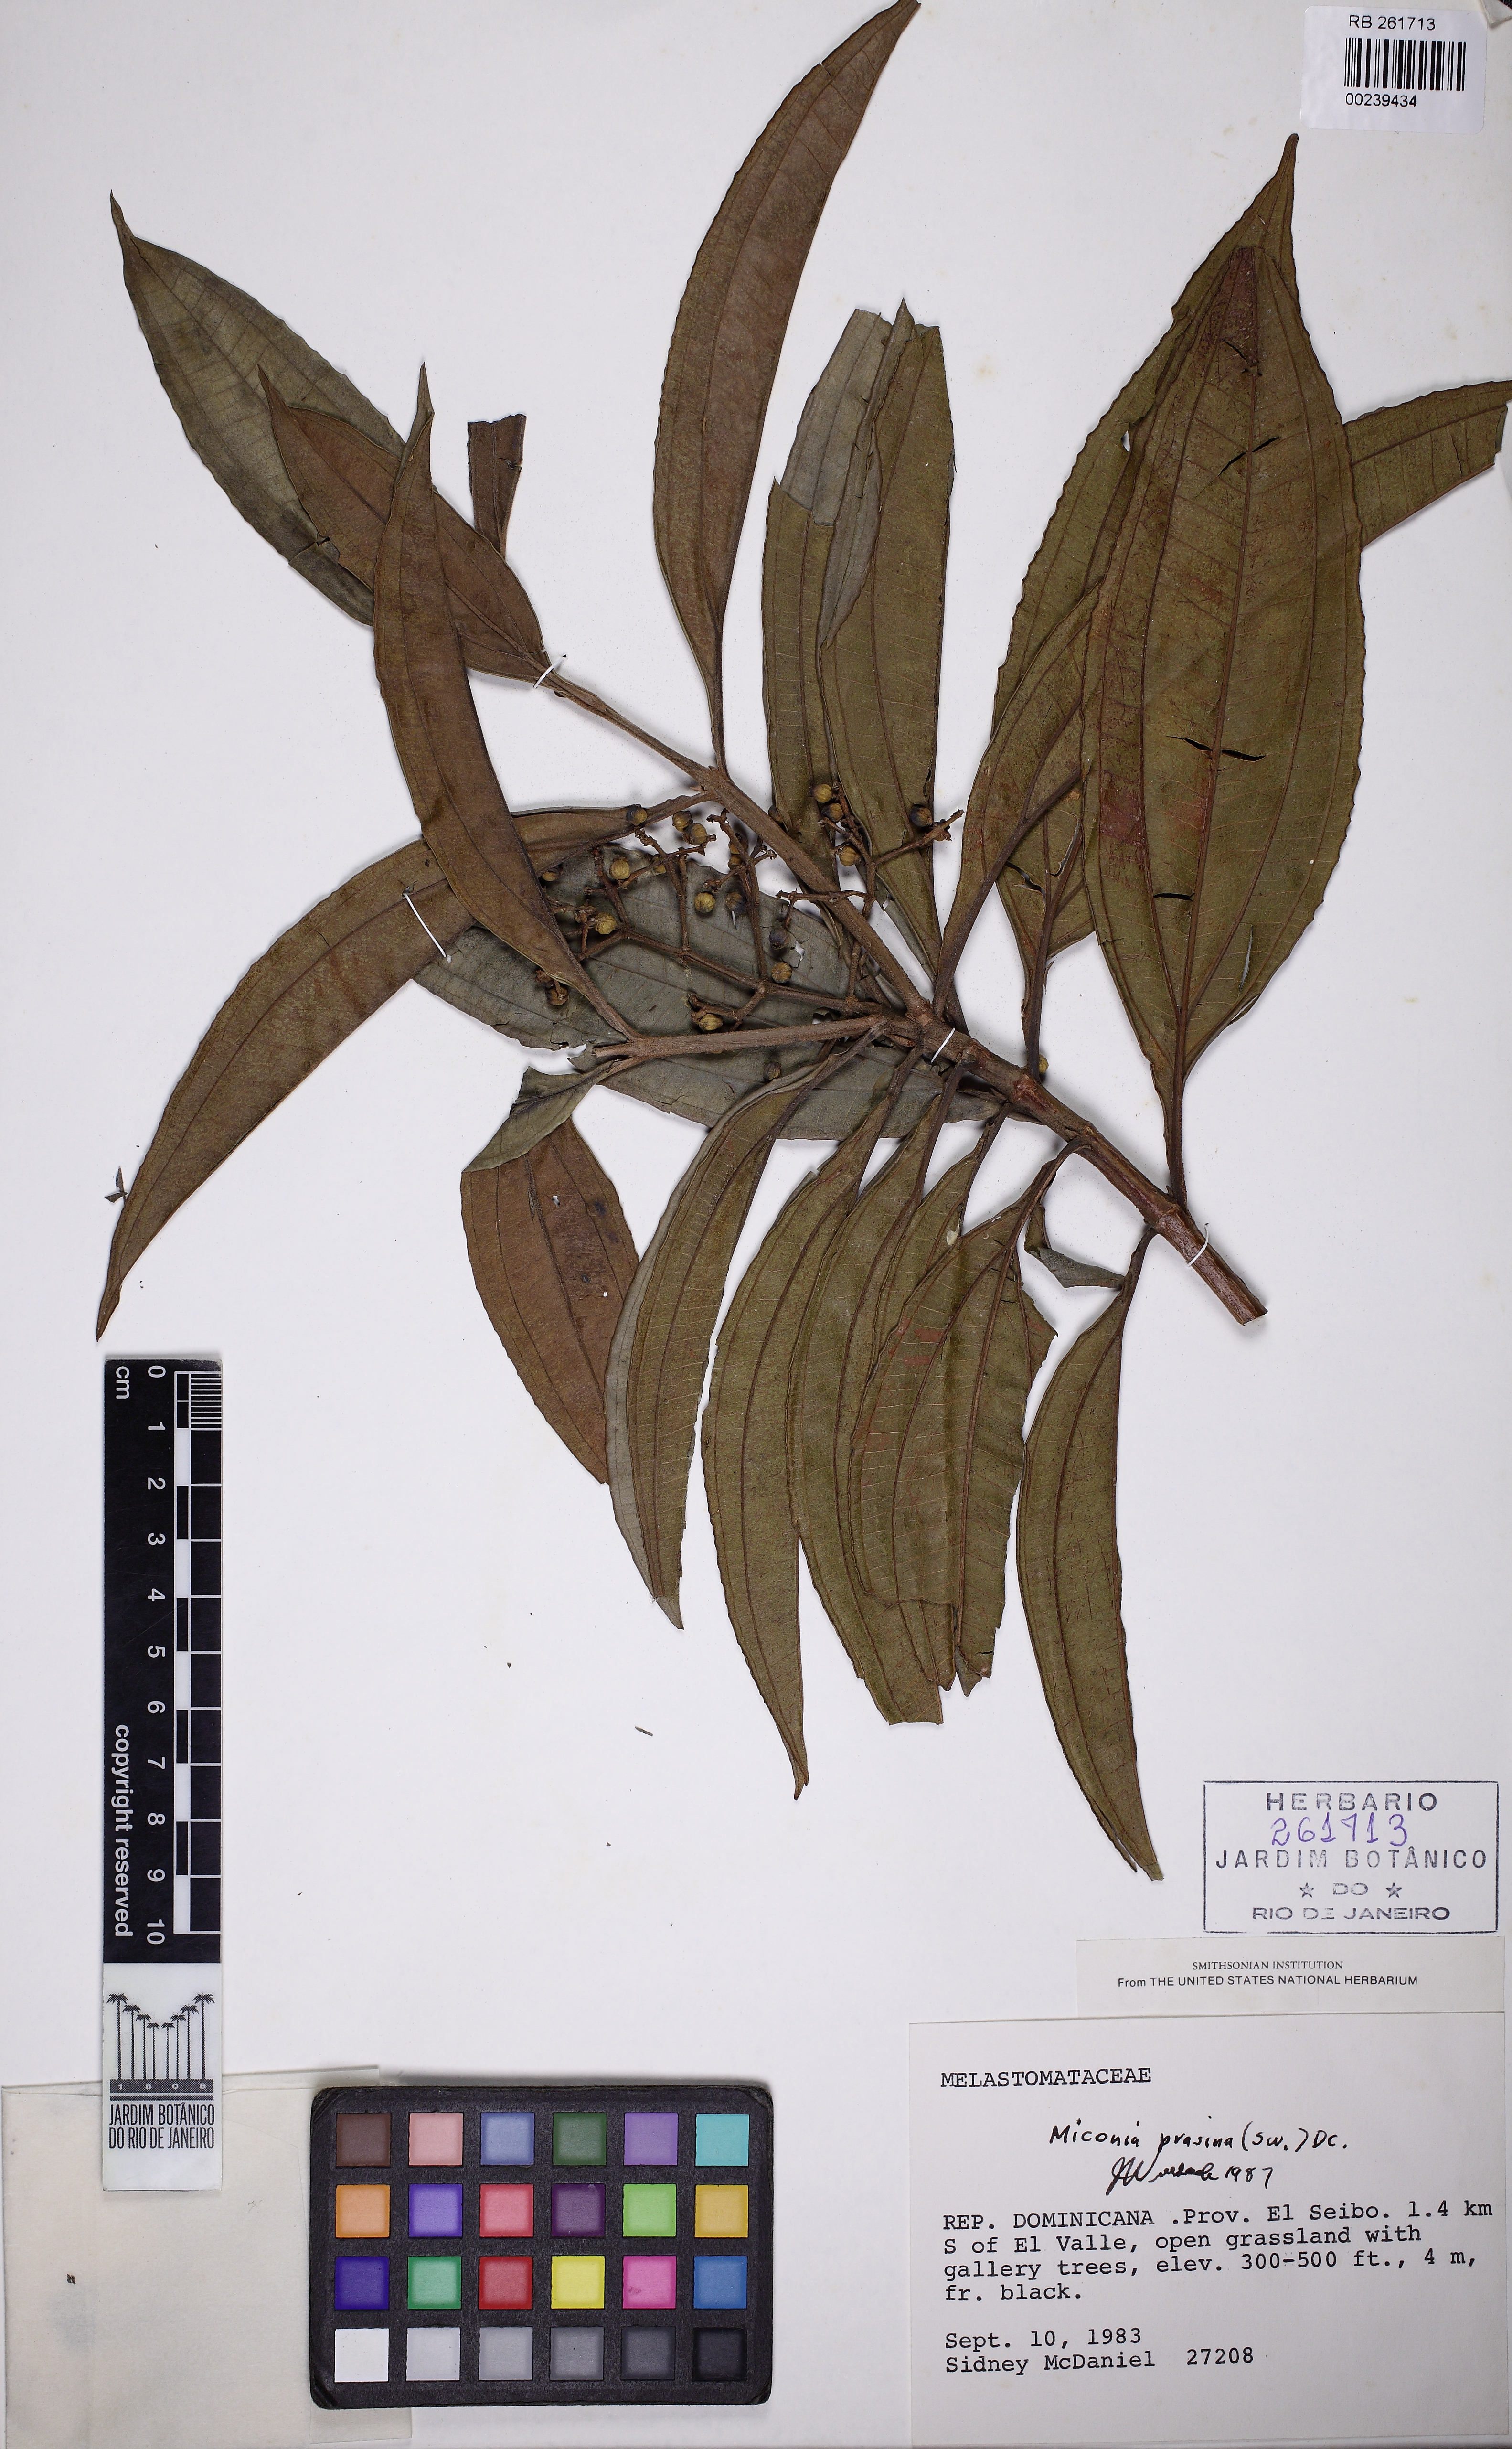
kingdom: Plantae
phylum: Tracheophyta
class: Magnoliopsida
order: Myrtales
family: Melastomataceae
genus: Miconia
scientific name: Miconia prasina
